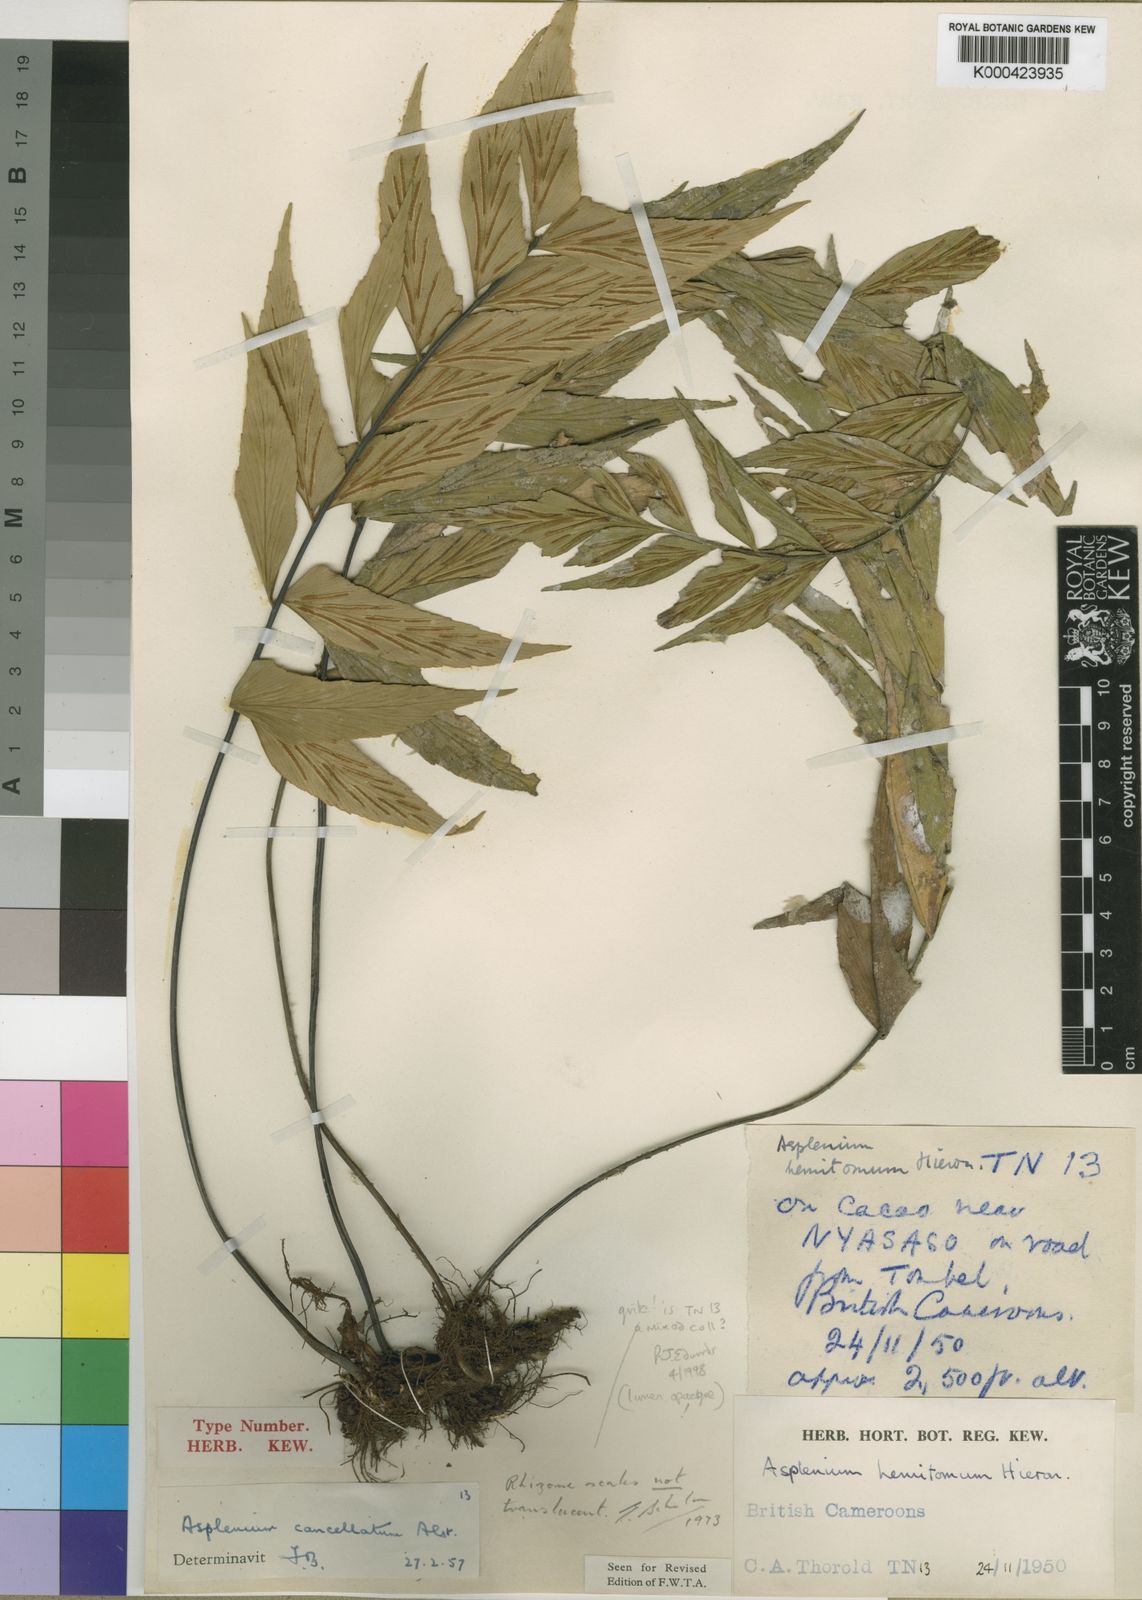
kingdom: Plantae
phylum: Tracheophyta
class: Polypodiopsida
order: Polypodiales
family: Aspleniaceae
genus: Asplenium
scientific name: Asplenium cancellatum
